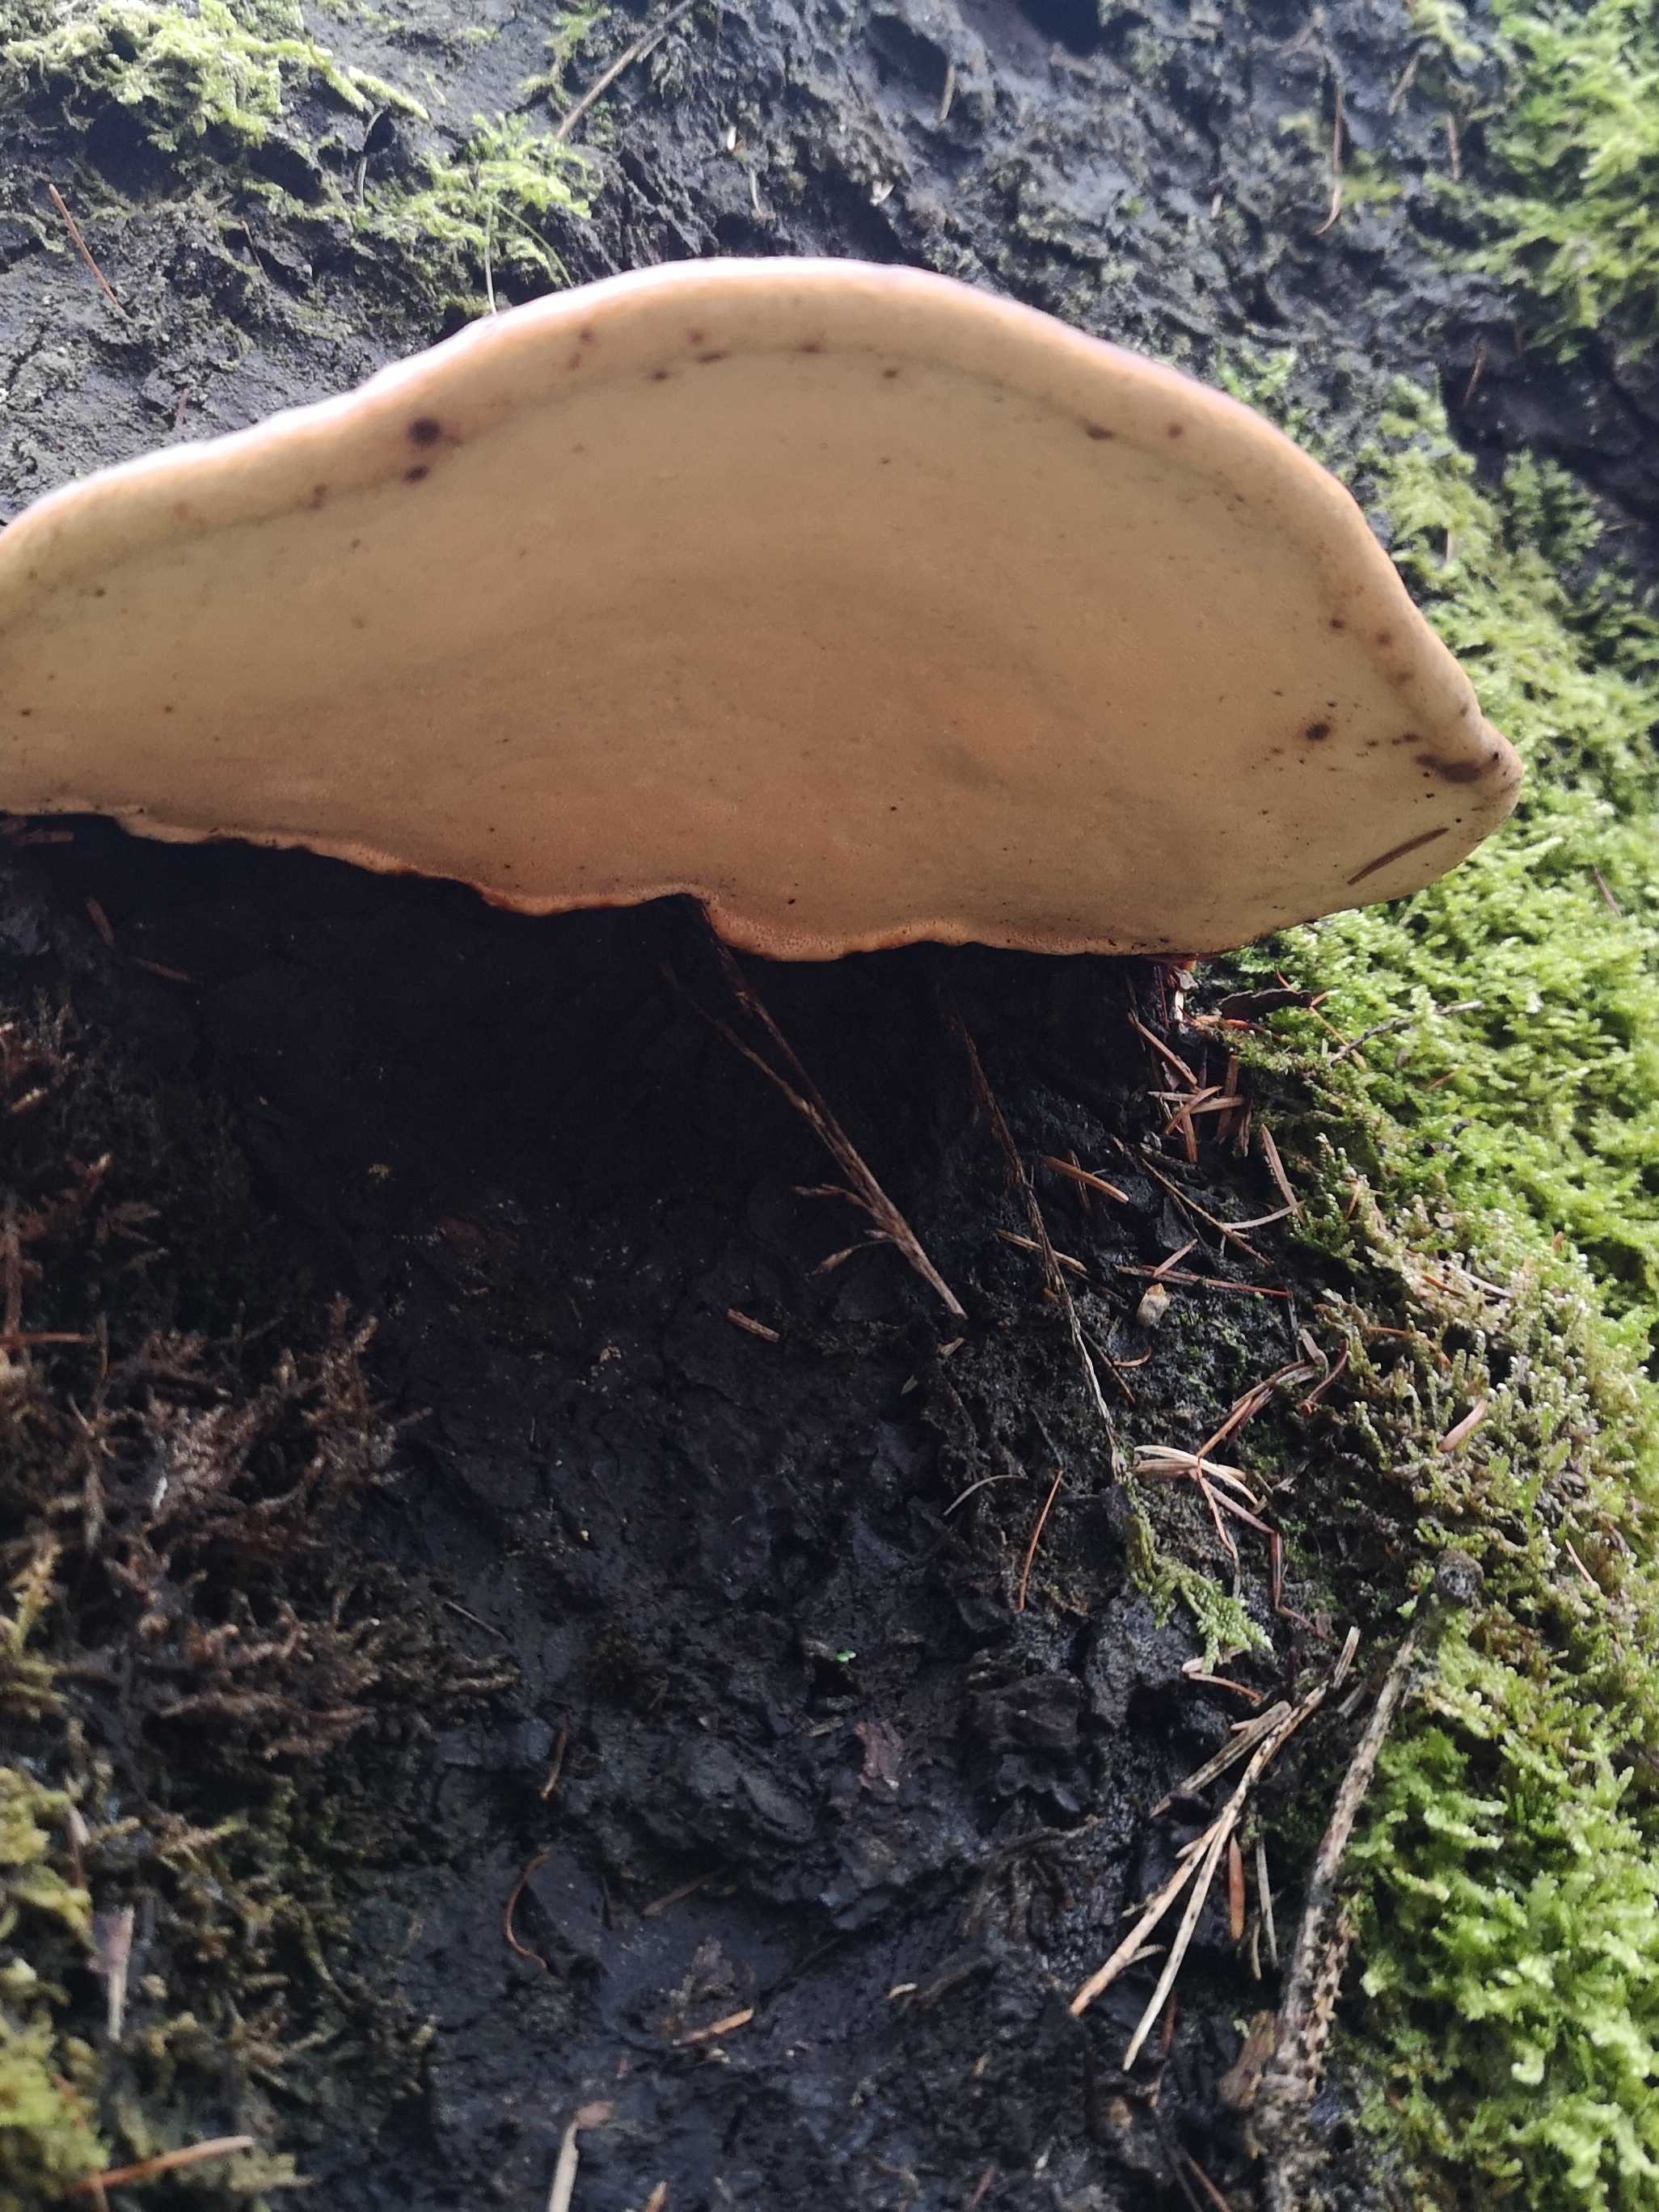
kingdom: Fungi
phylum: Basidiomycota
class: Agaricomycetes
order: Polyporales
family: Fomitopsidaceae
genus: Fomitopsis
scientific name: Fomitopsis pinicola
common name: randbæltet hovporesvamp
